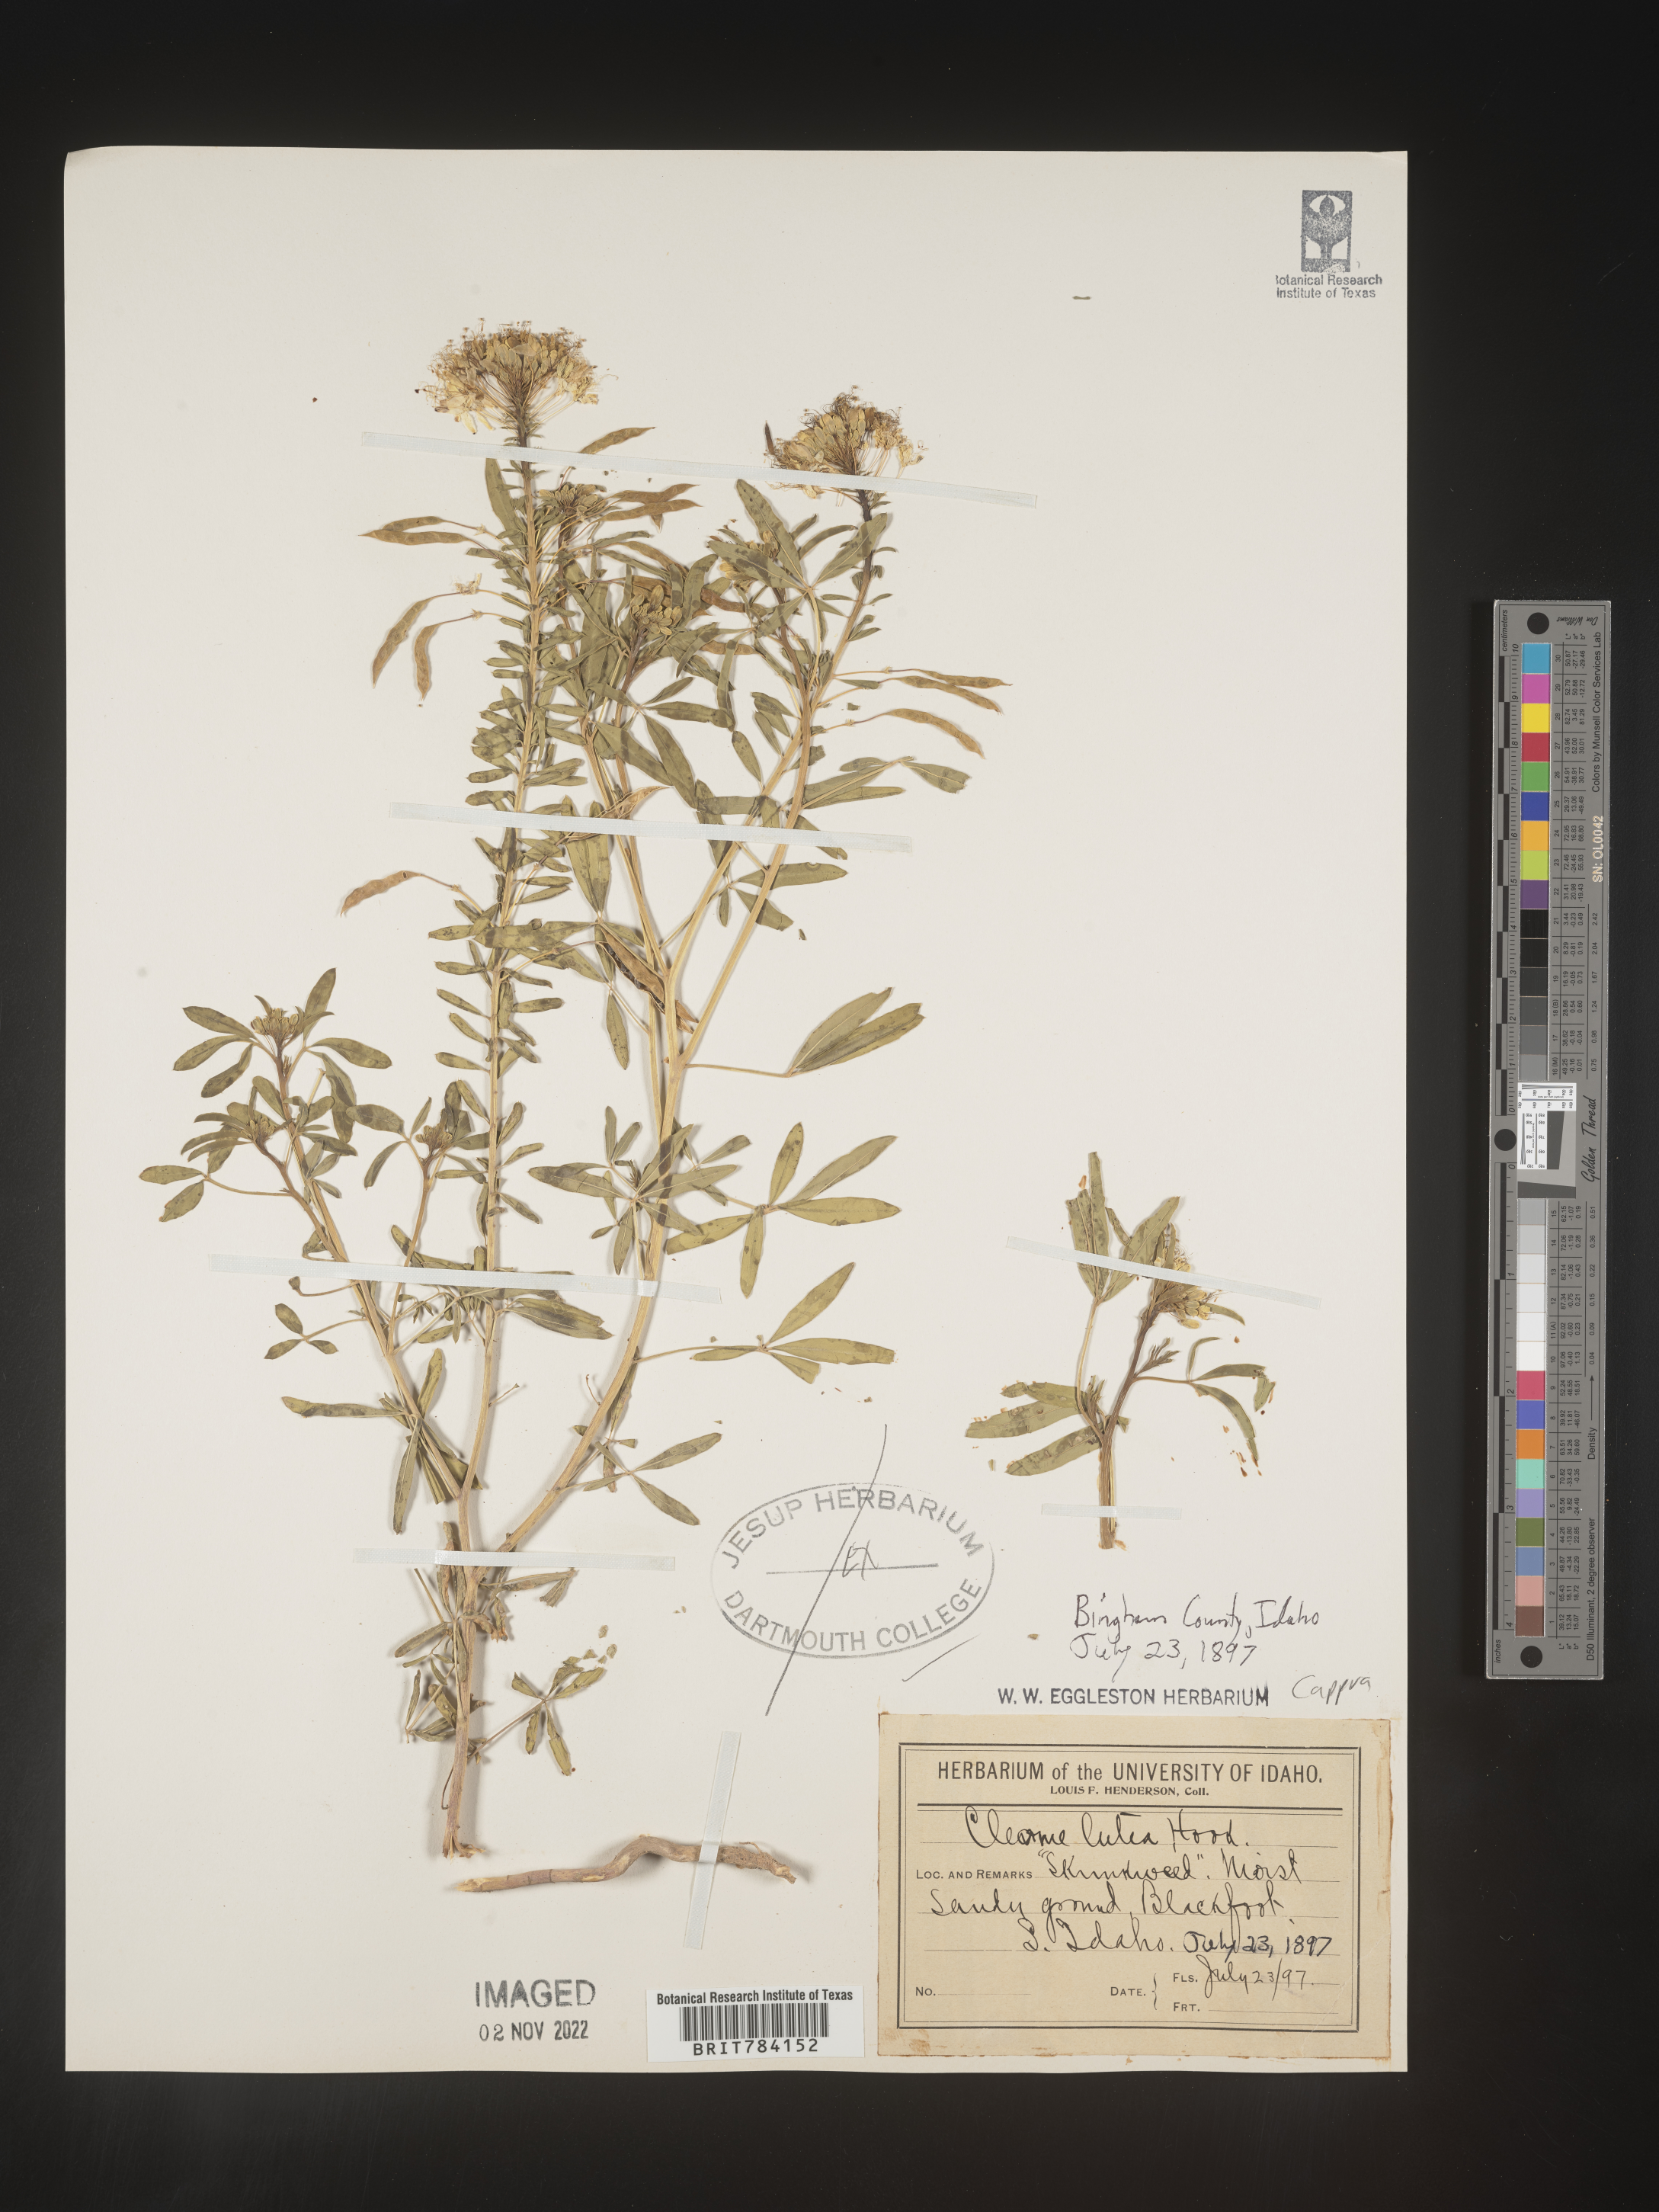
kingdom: Plantae
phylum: Tracheophyta
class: Magnoliopsida
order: Brassicales
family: Cleomaceae
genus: Cleomella
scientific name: Cleomella lutea
